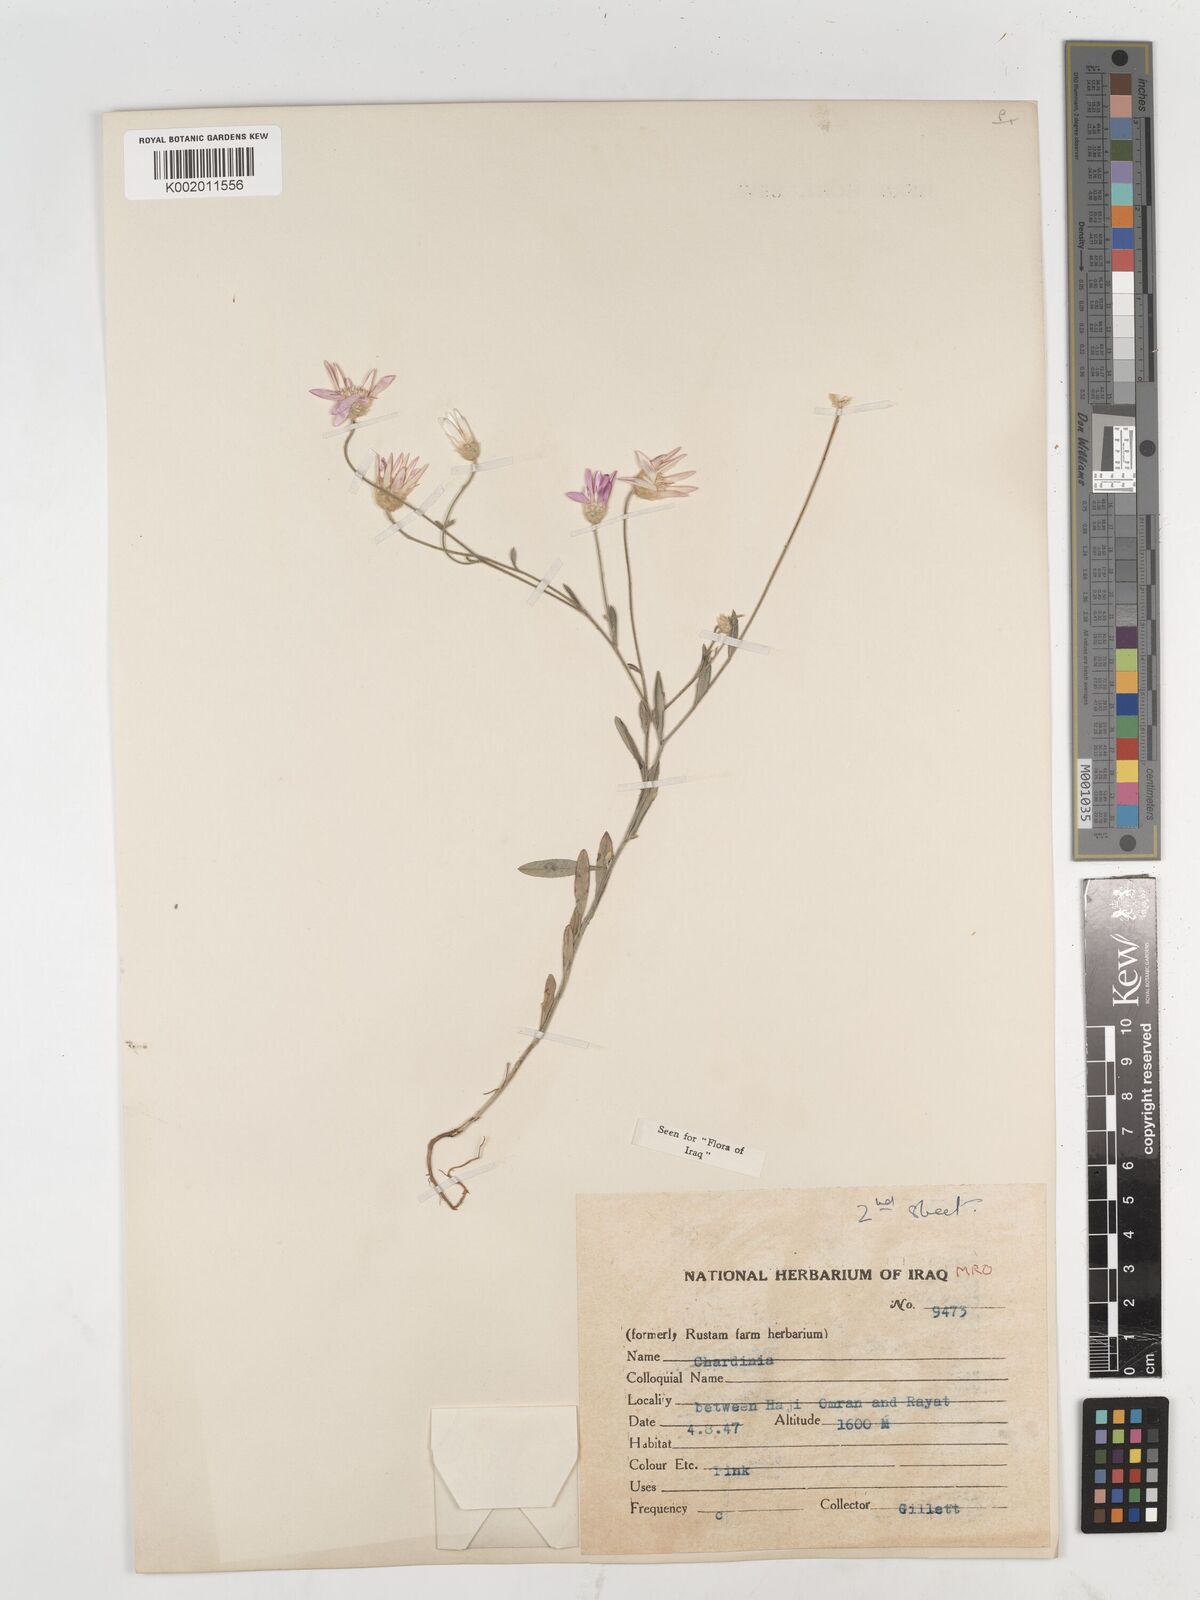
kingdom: Plantae
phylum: Tracheophyta
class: Magnoliopsida
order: Asterales
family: Asteraceae
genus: Xeranthemum
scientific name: Xeranthemum annuum
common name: Immortelle
